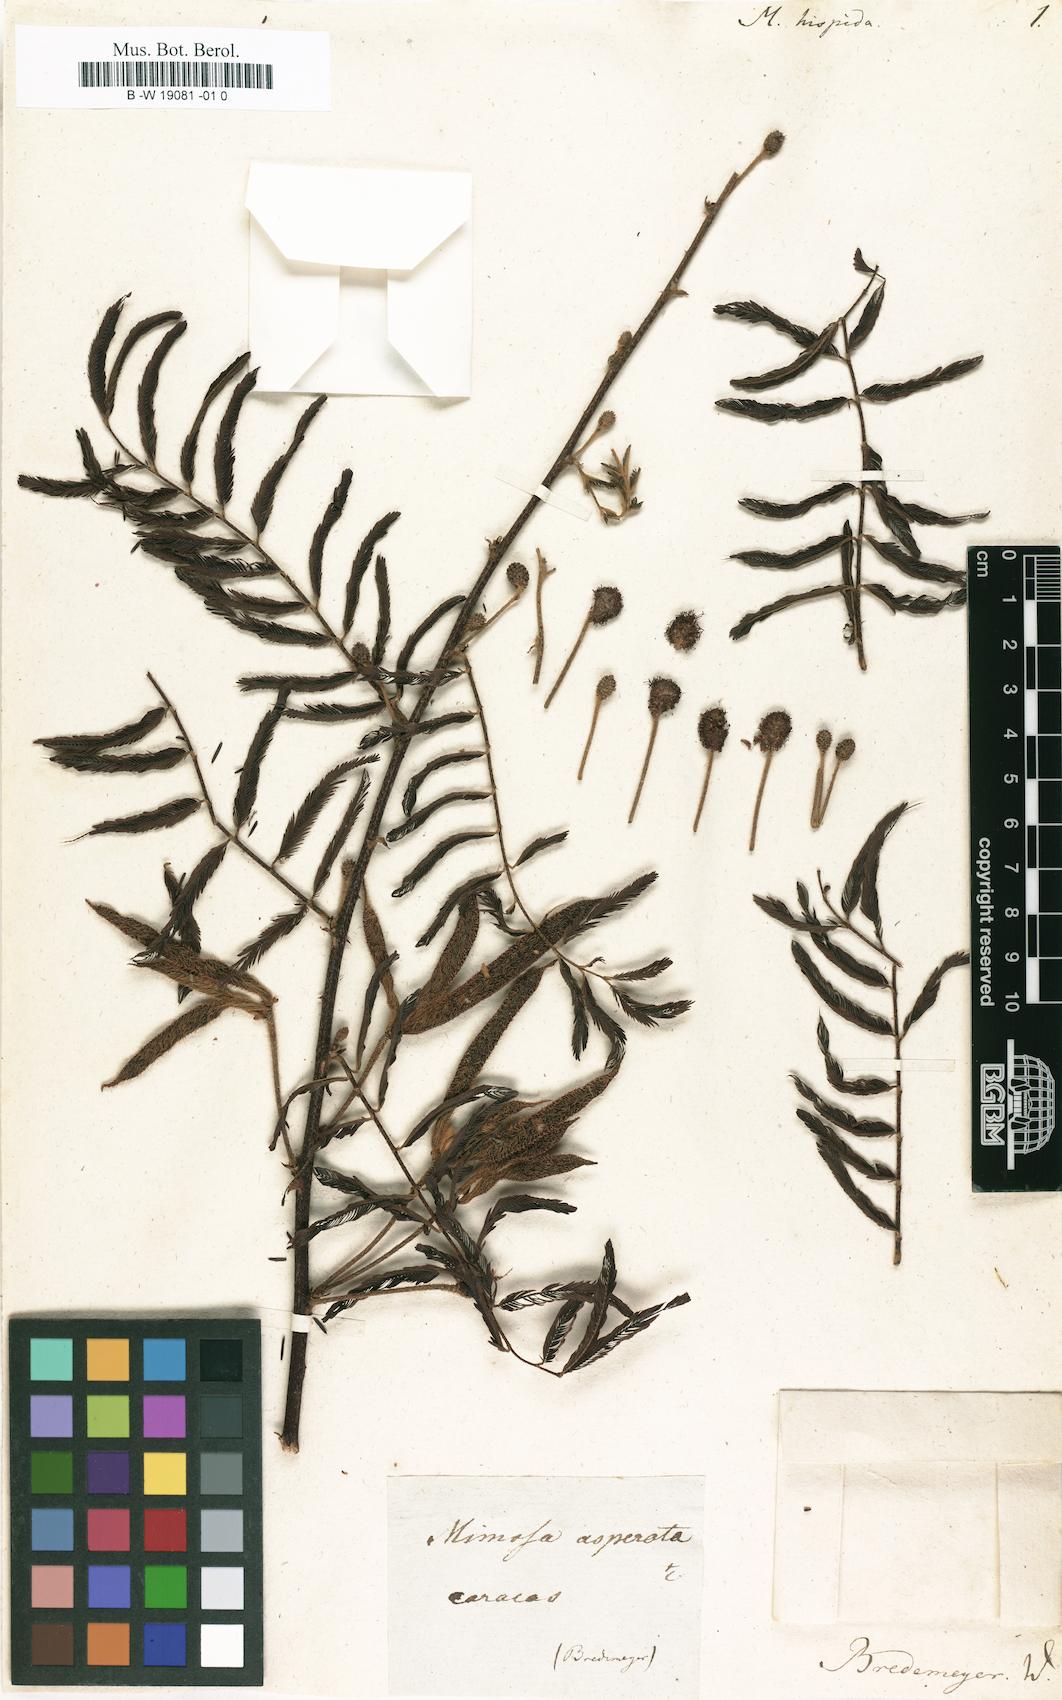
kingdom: Plantae
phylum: Tracheophyta
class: Magnoliopsida
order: Fabales
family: Fabaceae
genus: Mimosa
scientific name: Mimosa pigra
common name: Black mimosa
